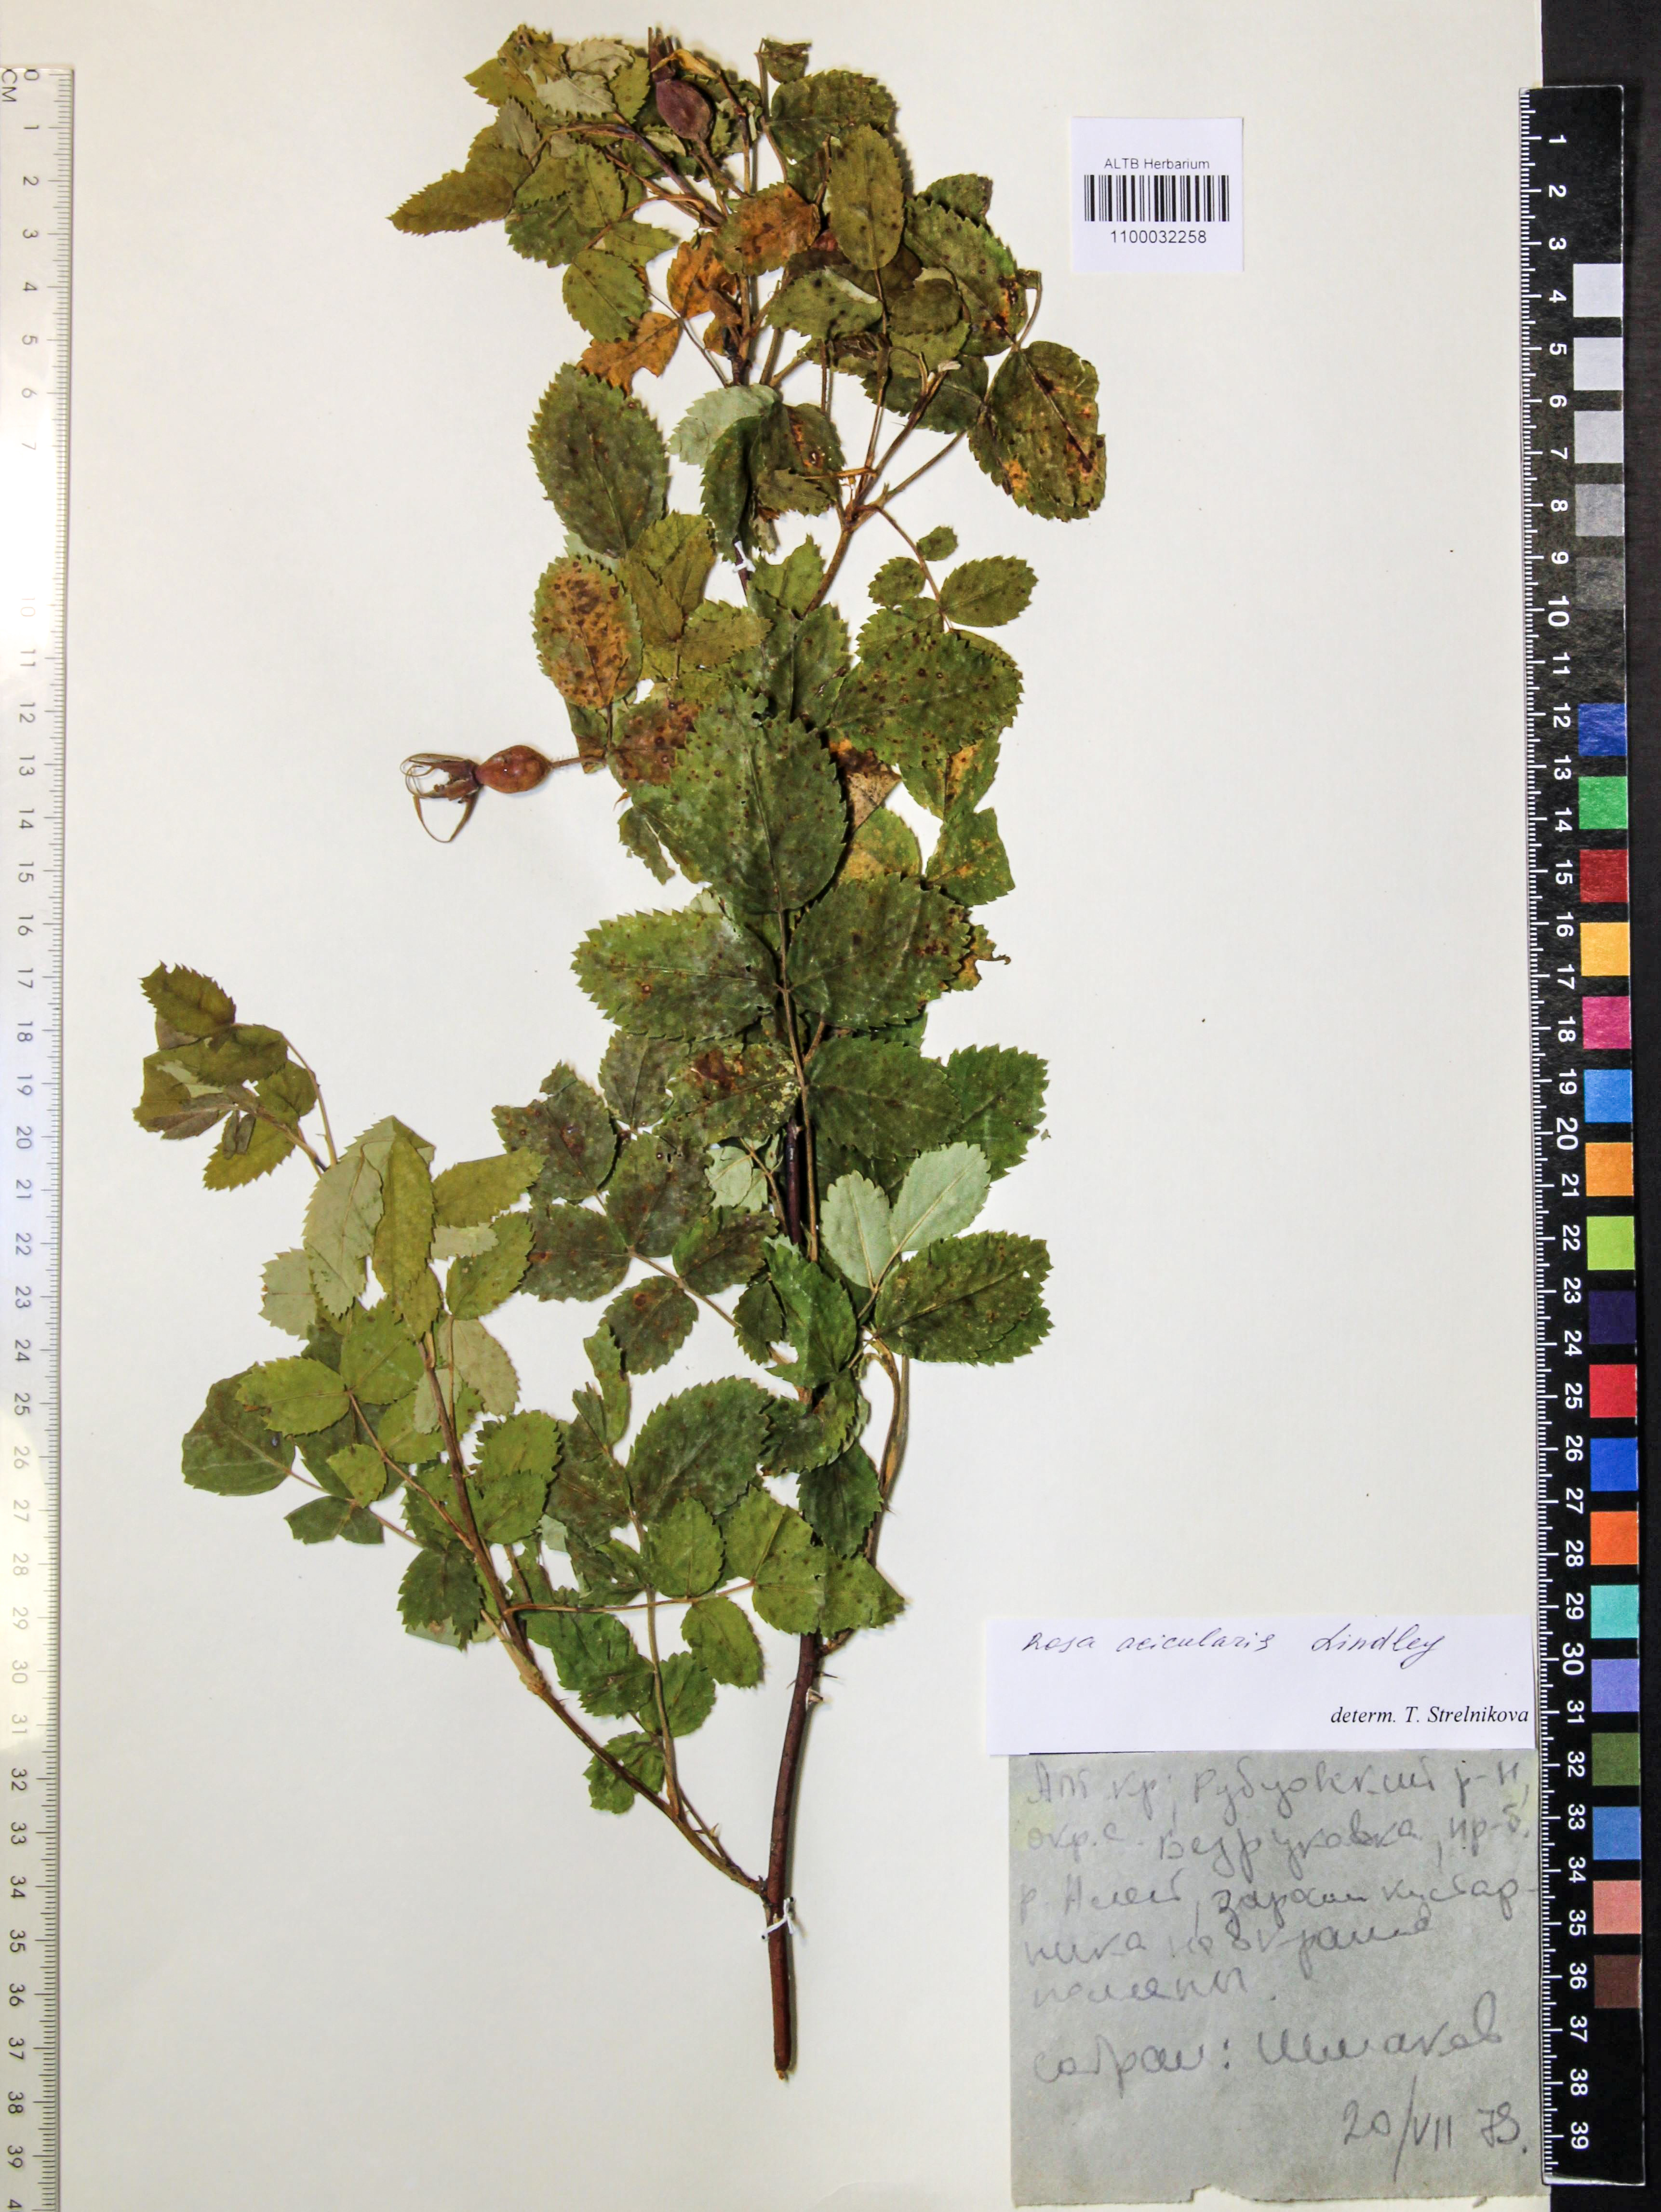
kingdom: Plantae
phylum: Tracheophyta
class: Magnoliopsida
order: Rosales
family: Rosaceae
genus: Rosa
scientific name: Rosa acicularis
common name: Prickly rose
